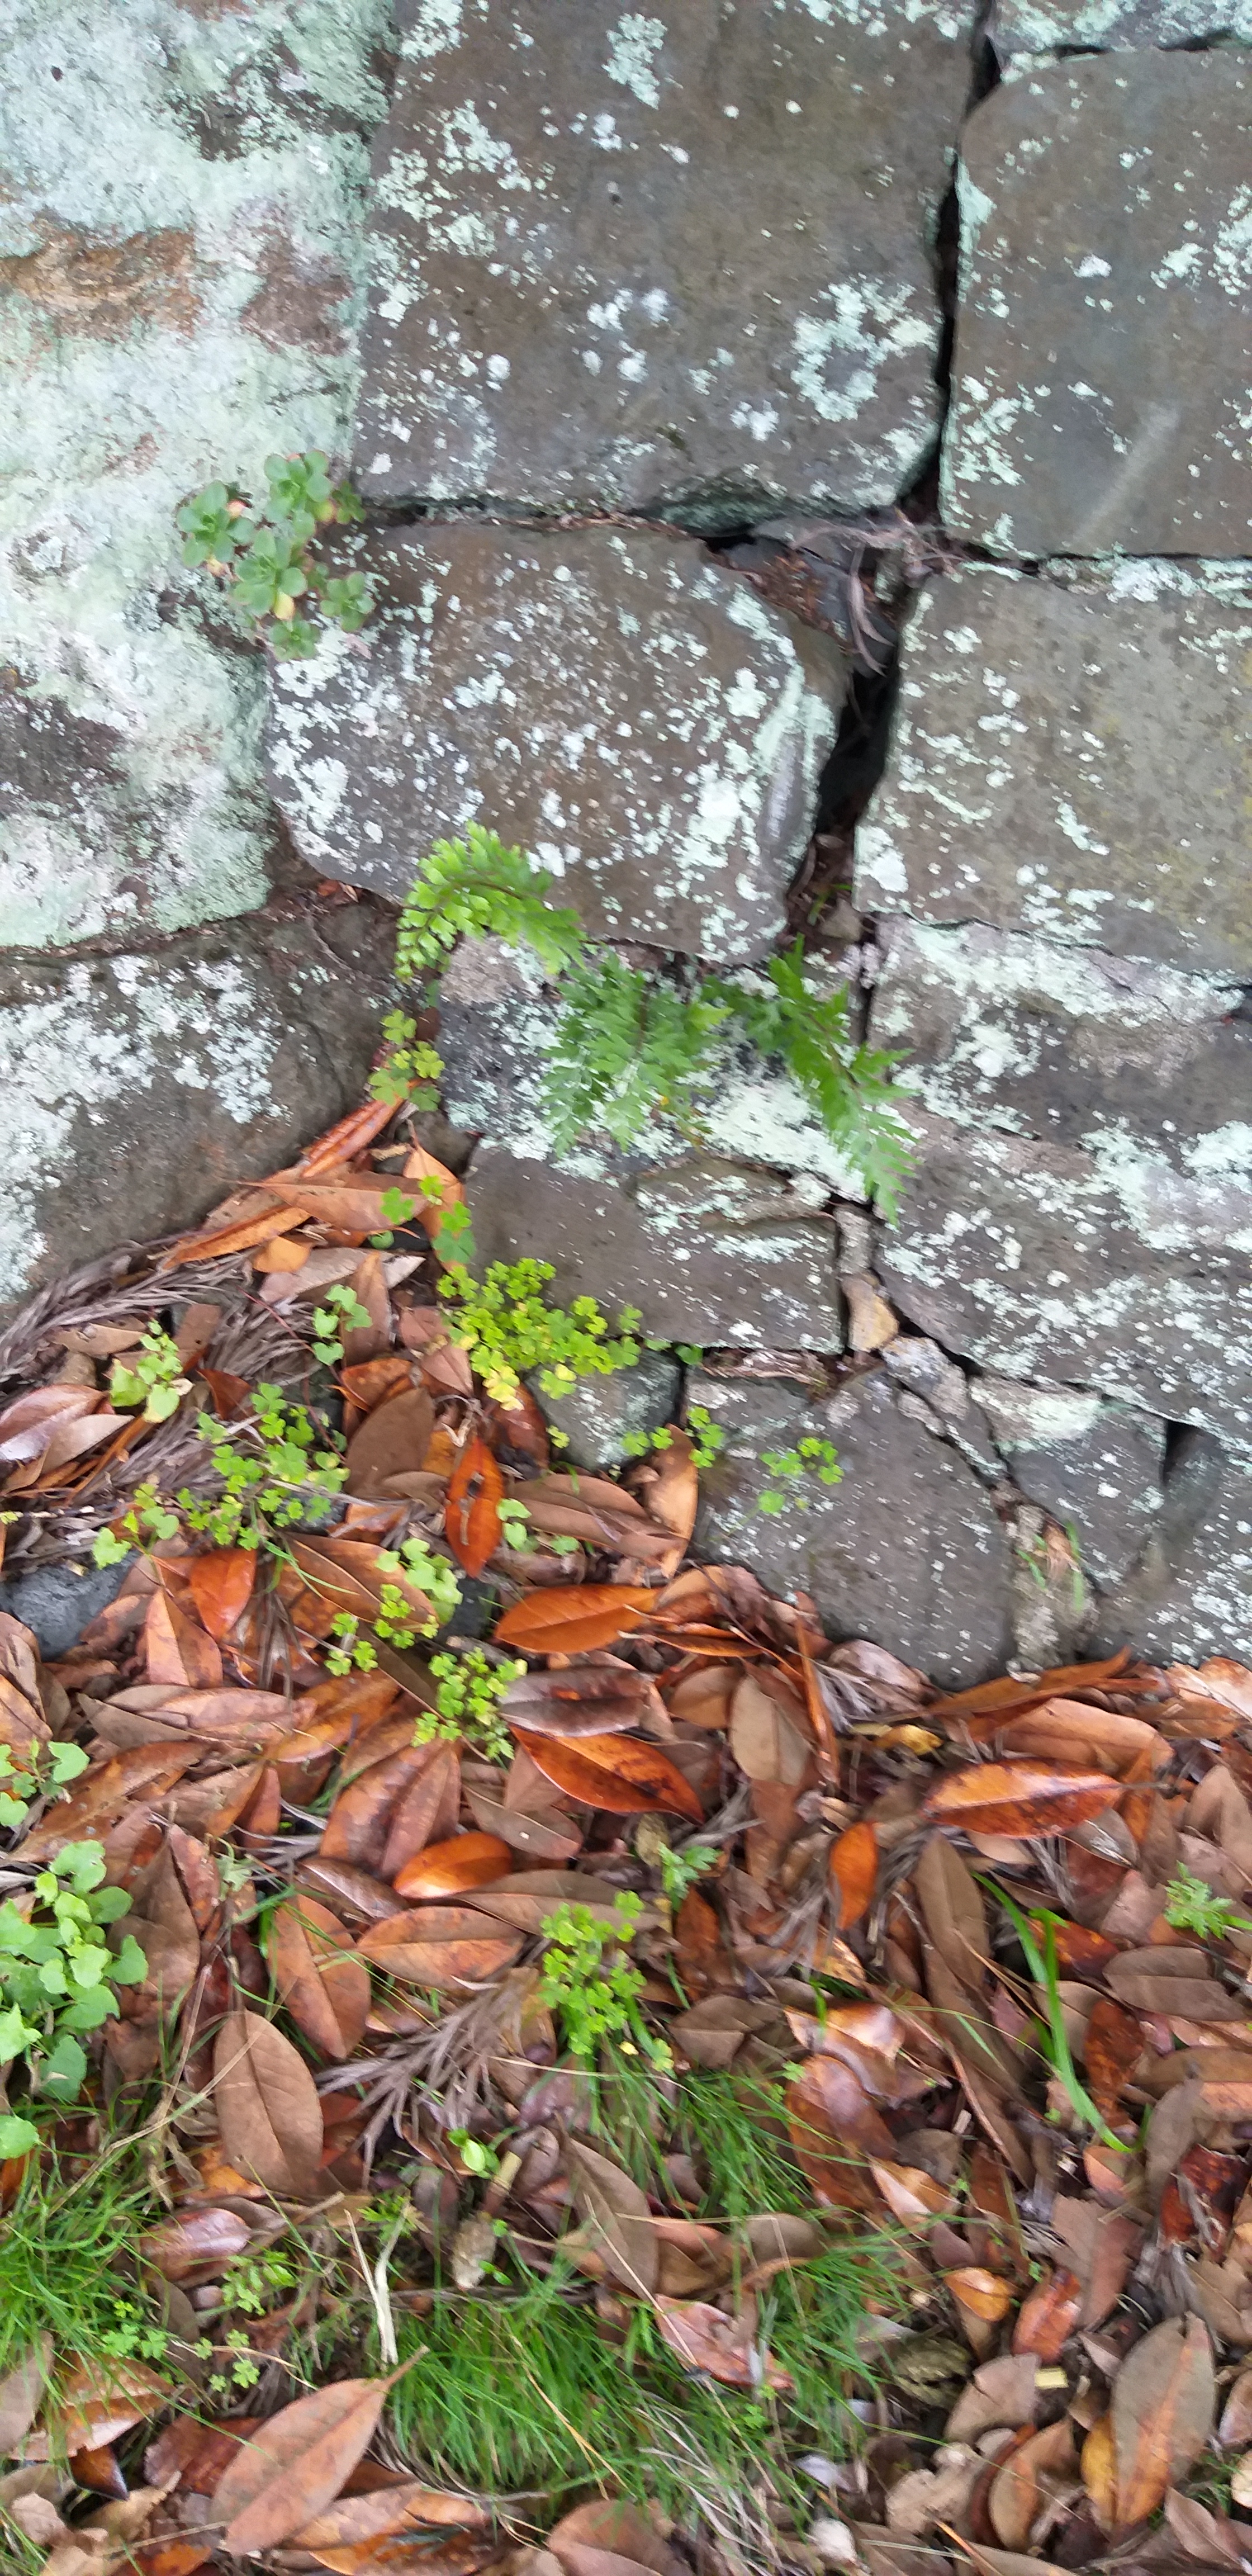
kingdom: Plantae
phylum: Tracheophyta
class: Polypodiopsida
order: Polypodiales
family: Aspleniaceae
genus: Asplenium
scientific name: Asplenium aethiopicum
